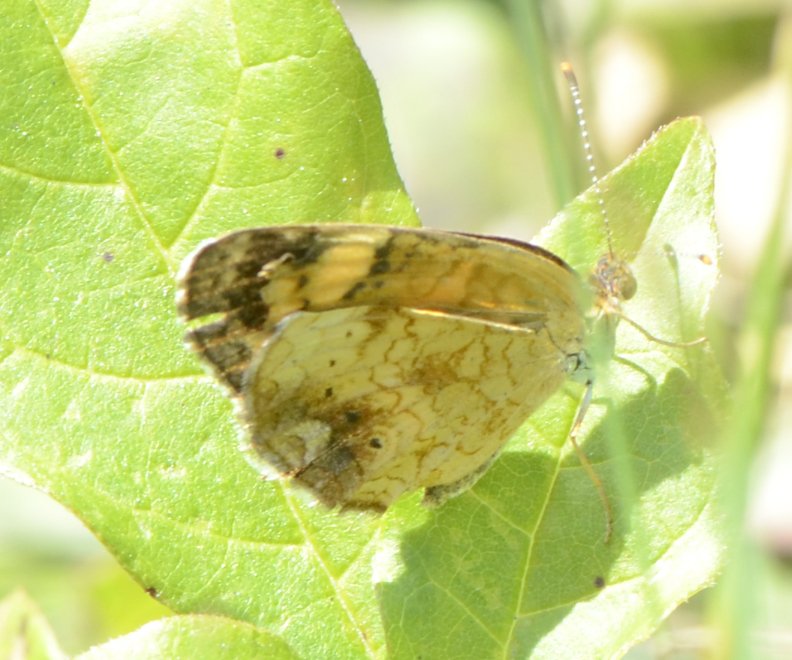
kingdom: Animalia
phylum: Arthropoda
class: Insecta
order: Lepidoptera
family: Nymphalidae
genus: Phyciodes
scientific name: Phyciodes tharos
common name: Northern Crescent
